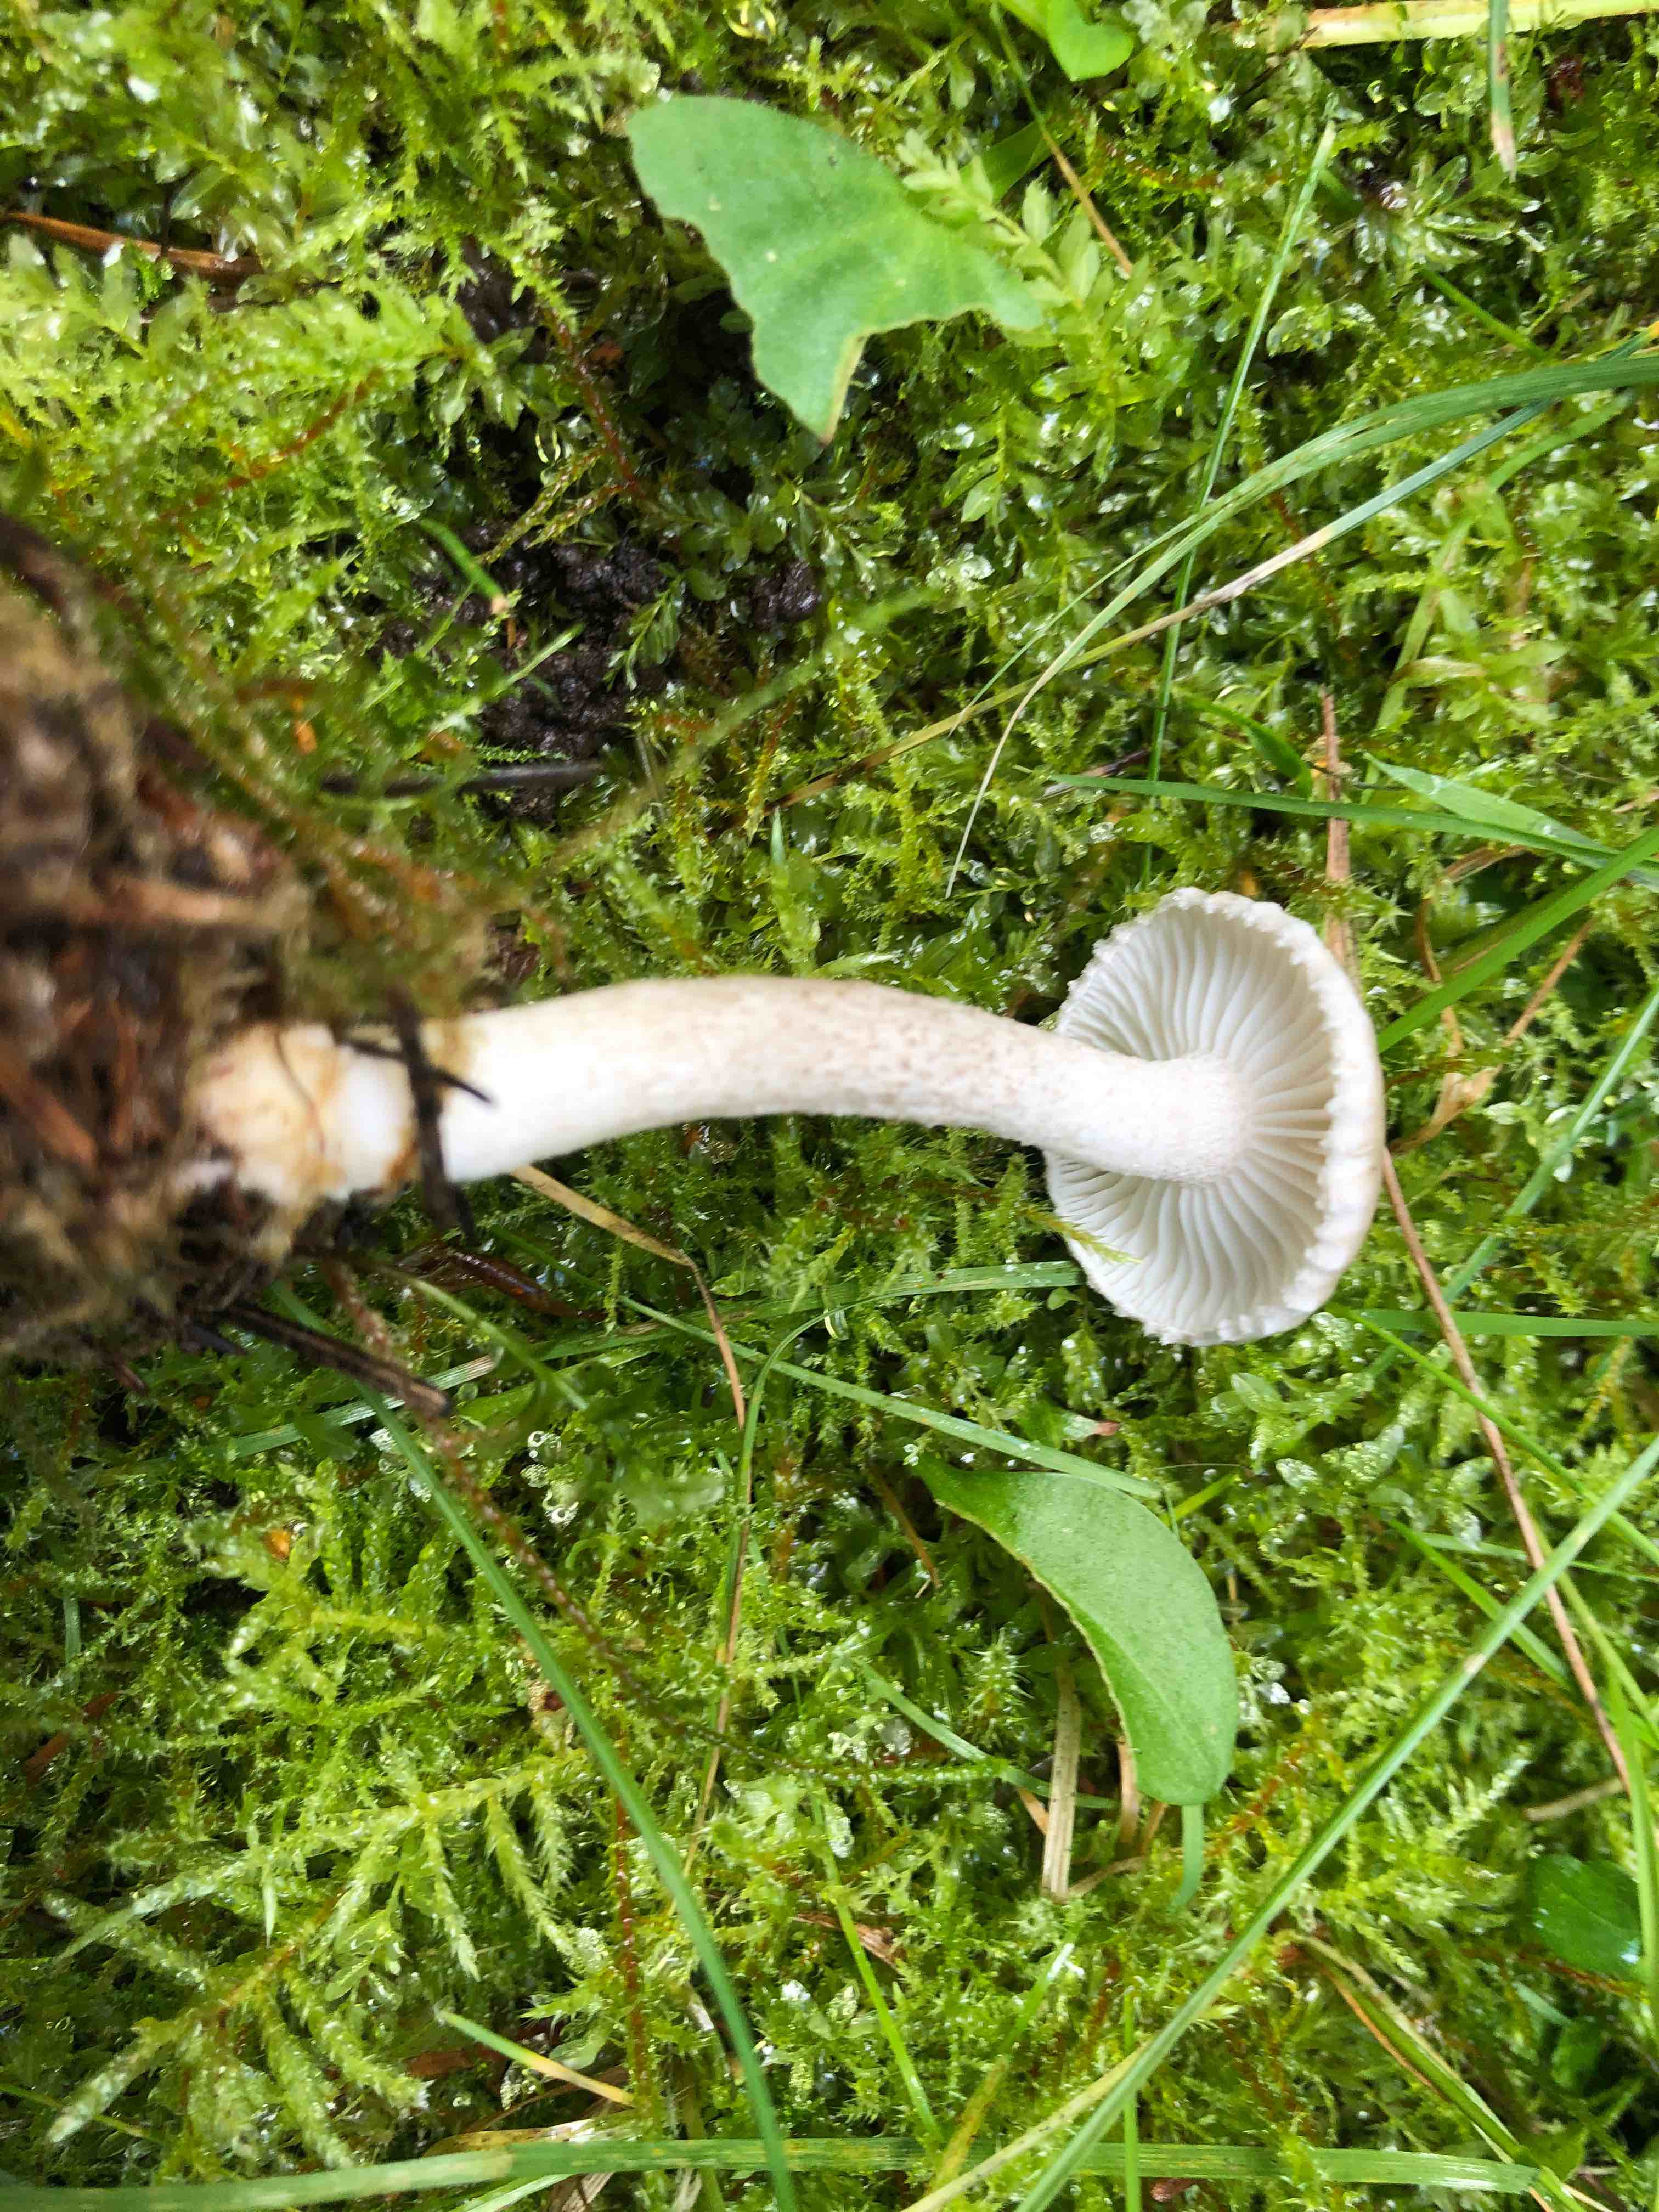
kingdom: Fungi
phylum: Basidiomycota
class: Agaricomycetes
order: Agaricales
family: Hygrophoraceae
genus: Hygrophorus
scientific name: Hygrophorus pustulatus
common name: mørkprikket sneglehat
